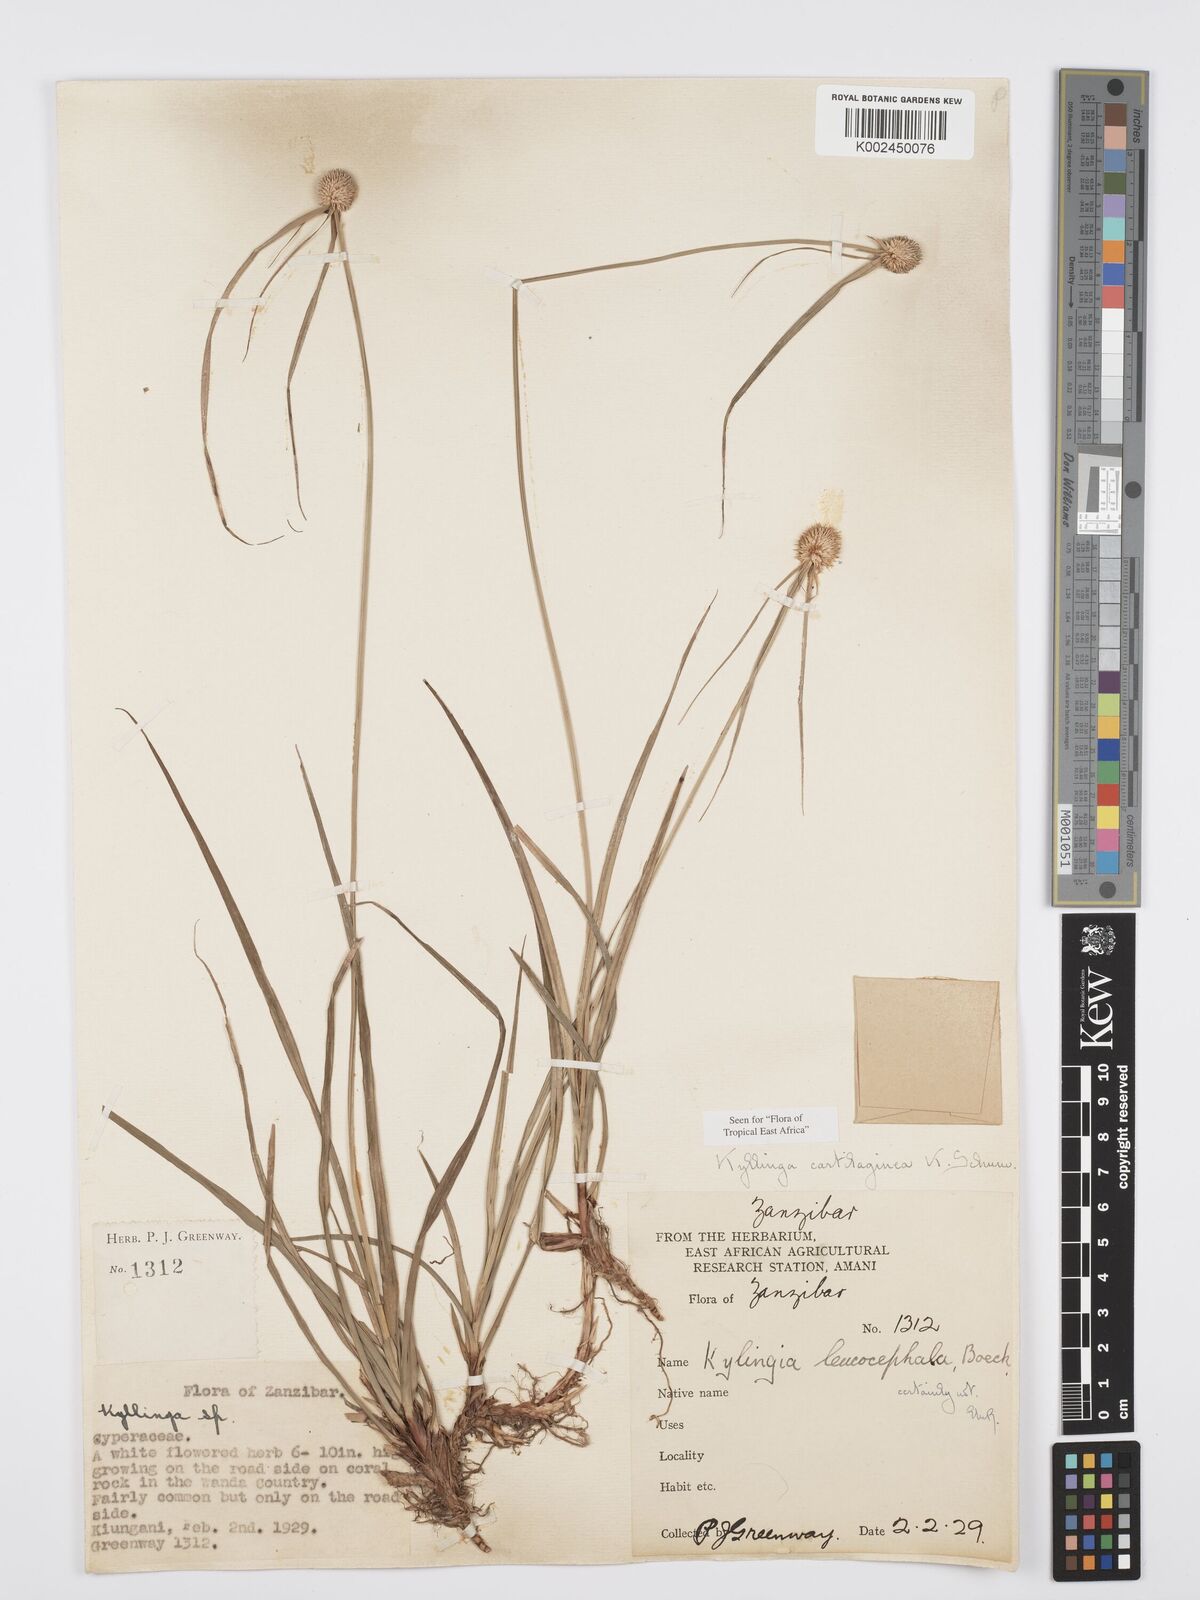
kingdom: Plantae
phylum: Tracheophyta
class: Liliopsida
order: Poales
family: Cyperaceae
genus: Cyperus
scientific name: Cyperus cartilagineus
